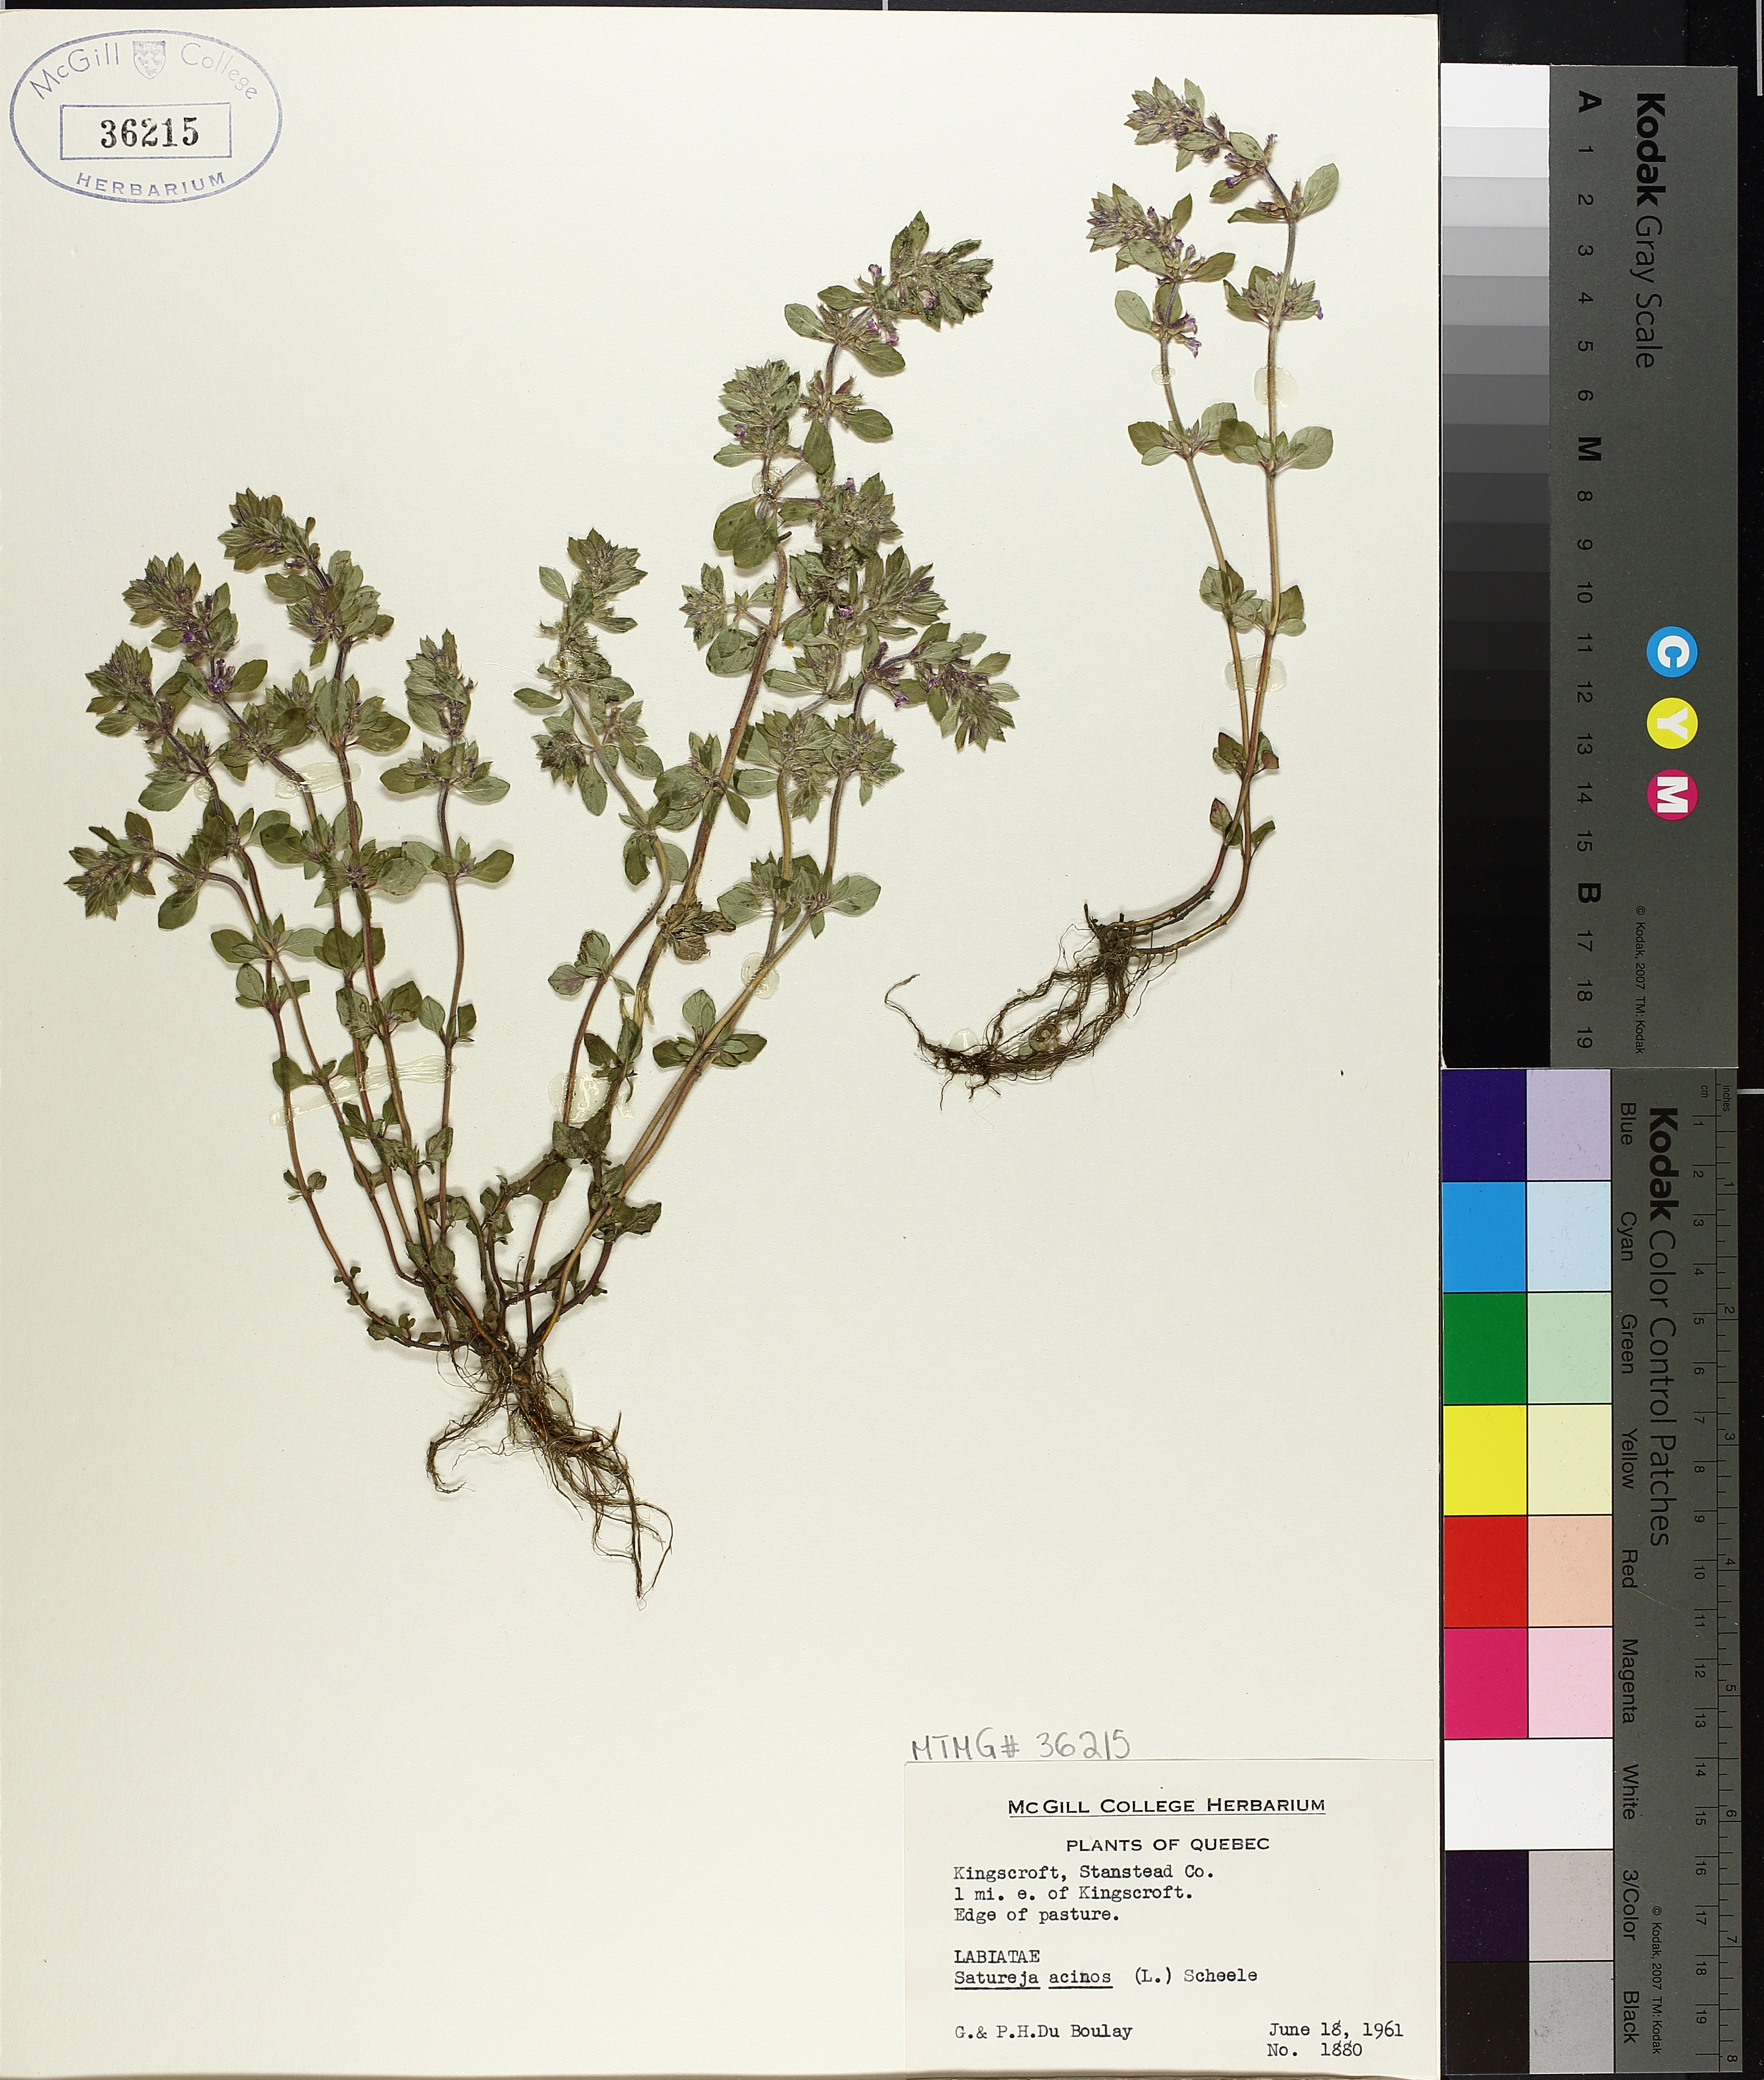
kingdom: Plantae
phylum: Tracheophyta
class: Magnoliopsida
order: Lamiales
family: Lamiaceae
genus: Clinopodium
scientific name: Clinopodium acinos
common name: Basil thyme
